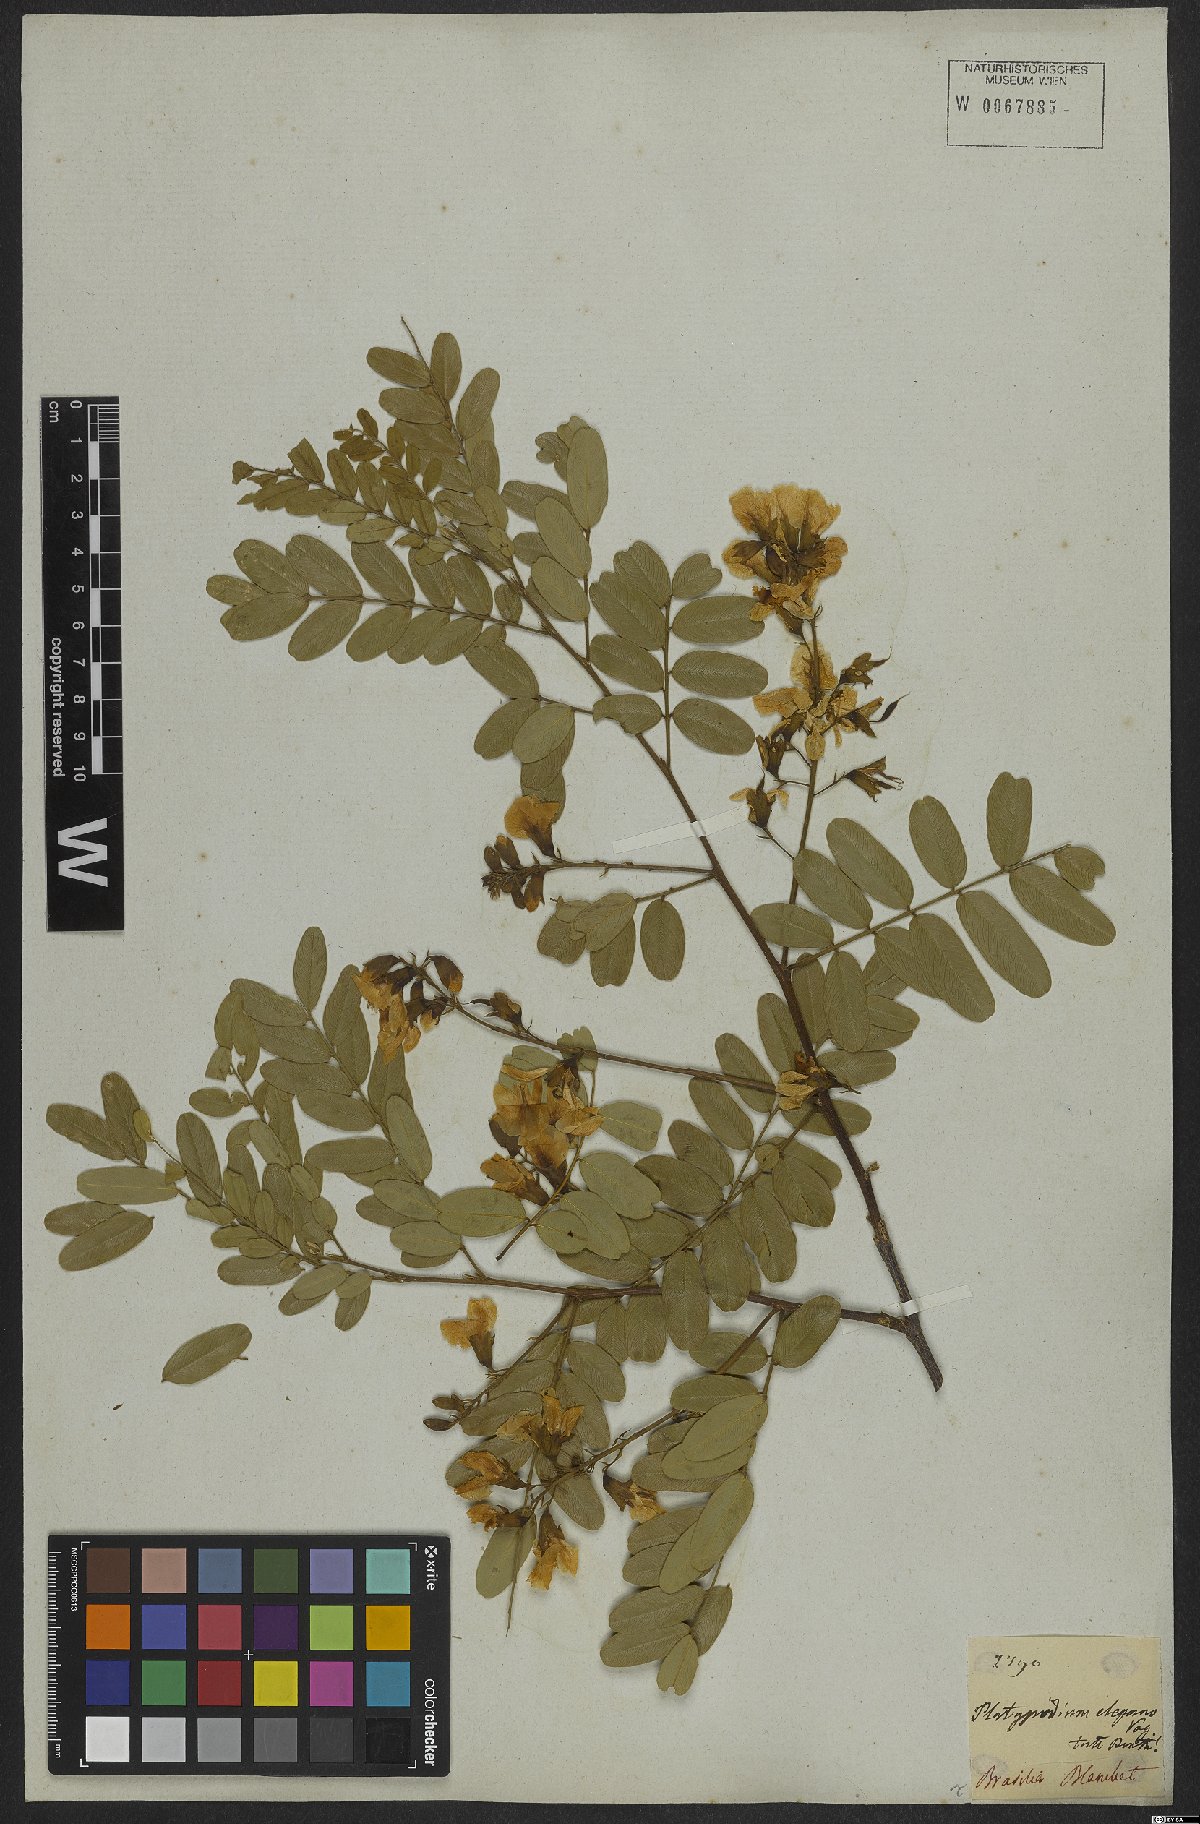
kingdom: Plantae
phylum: Tracheophyta
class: Magnoliopsida
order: Fabales
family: Fabaceae
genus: Platypodium
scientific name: Platypodium elegans
